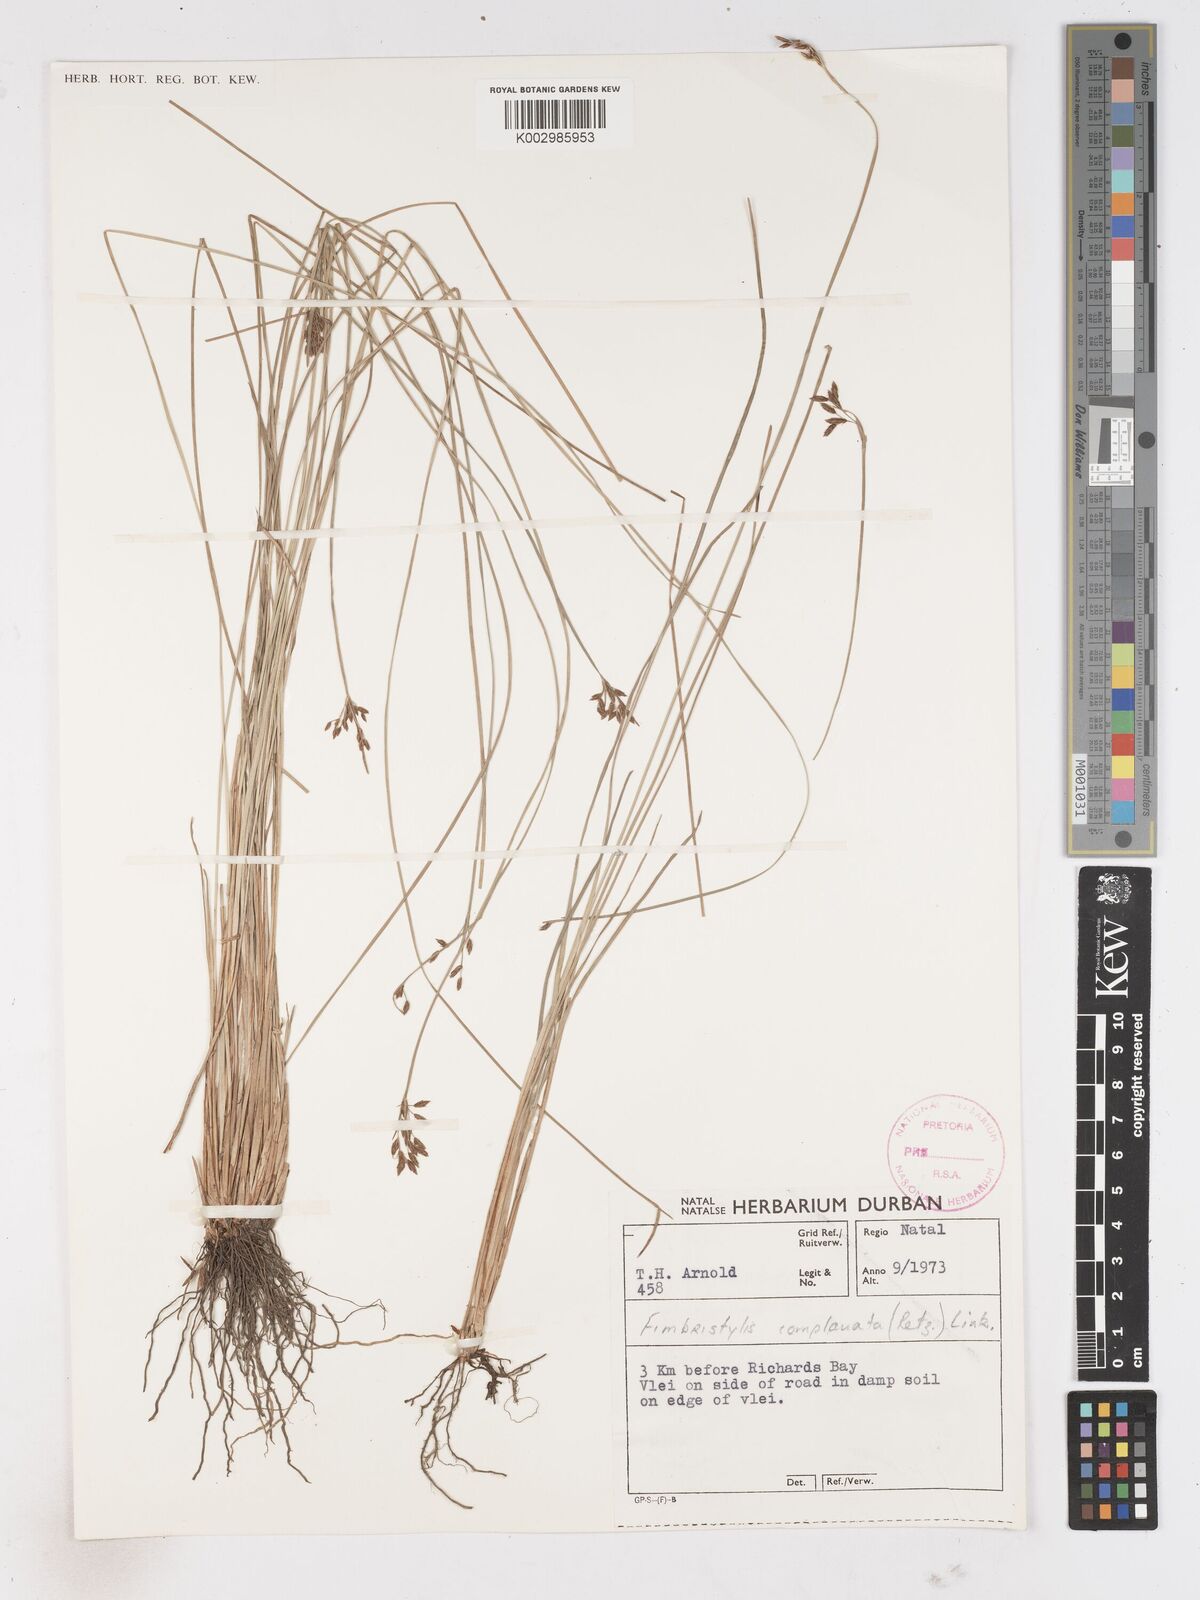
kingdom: Plantae
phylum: Tracheophyta
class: Liliopsida
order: Poales
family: Cyperaceae
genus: Fimbristylis
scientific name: Fimbristylis complanata
